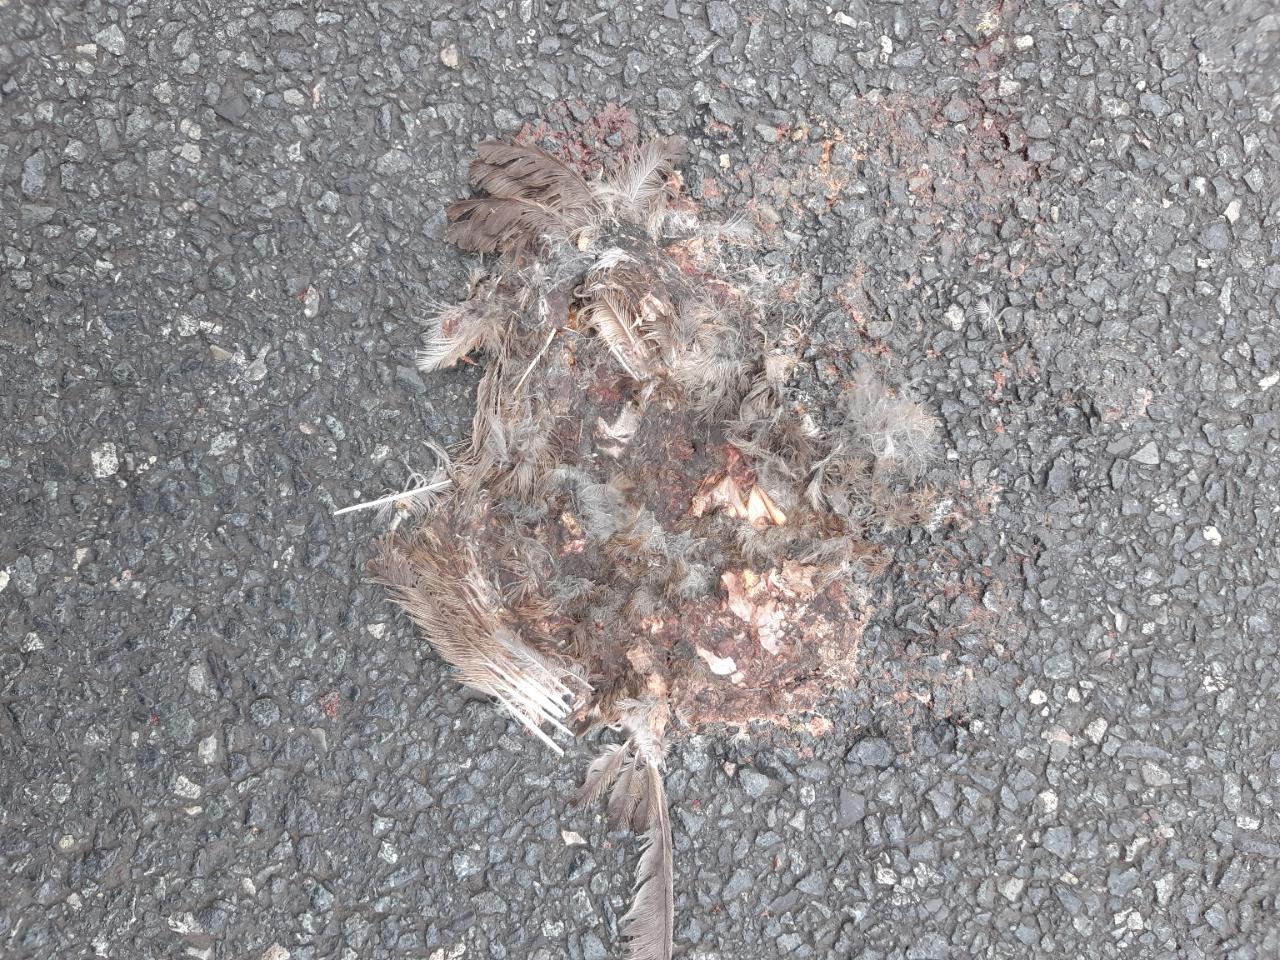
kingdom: Animalia
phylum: Chordata
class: Aves
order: Passeriformes
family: Passeridae
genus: Passer
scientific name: Passer
